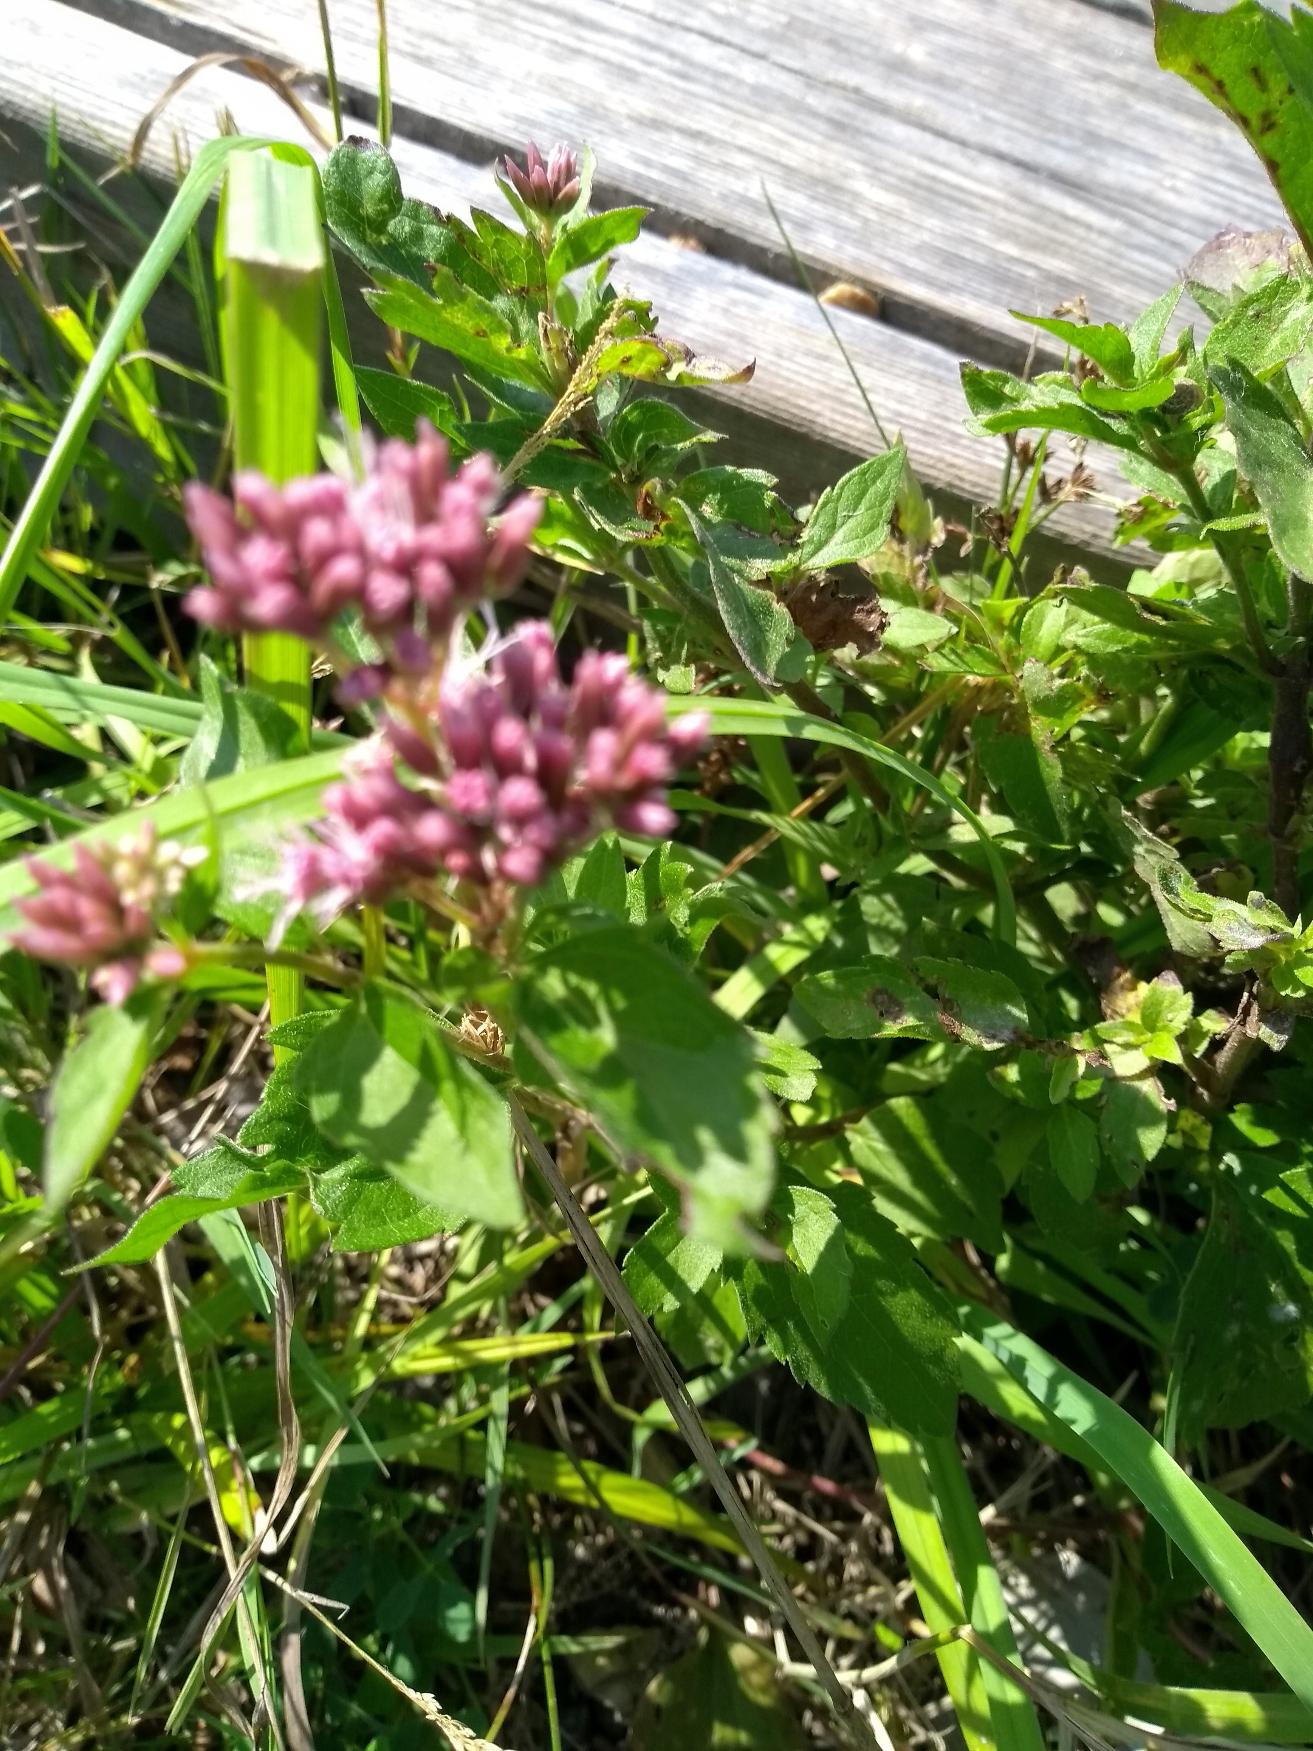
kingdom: Plantae
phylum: Tracheophyta
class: Magnoliopsida
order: Asterales
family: Asteraceae
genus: Eupatorium
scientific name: Eupatorium cannabinum
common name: Hjortetrøst
